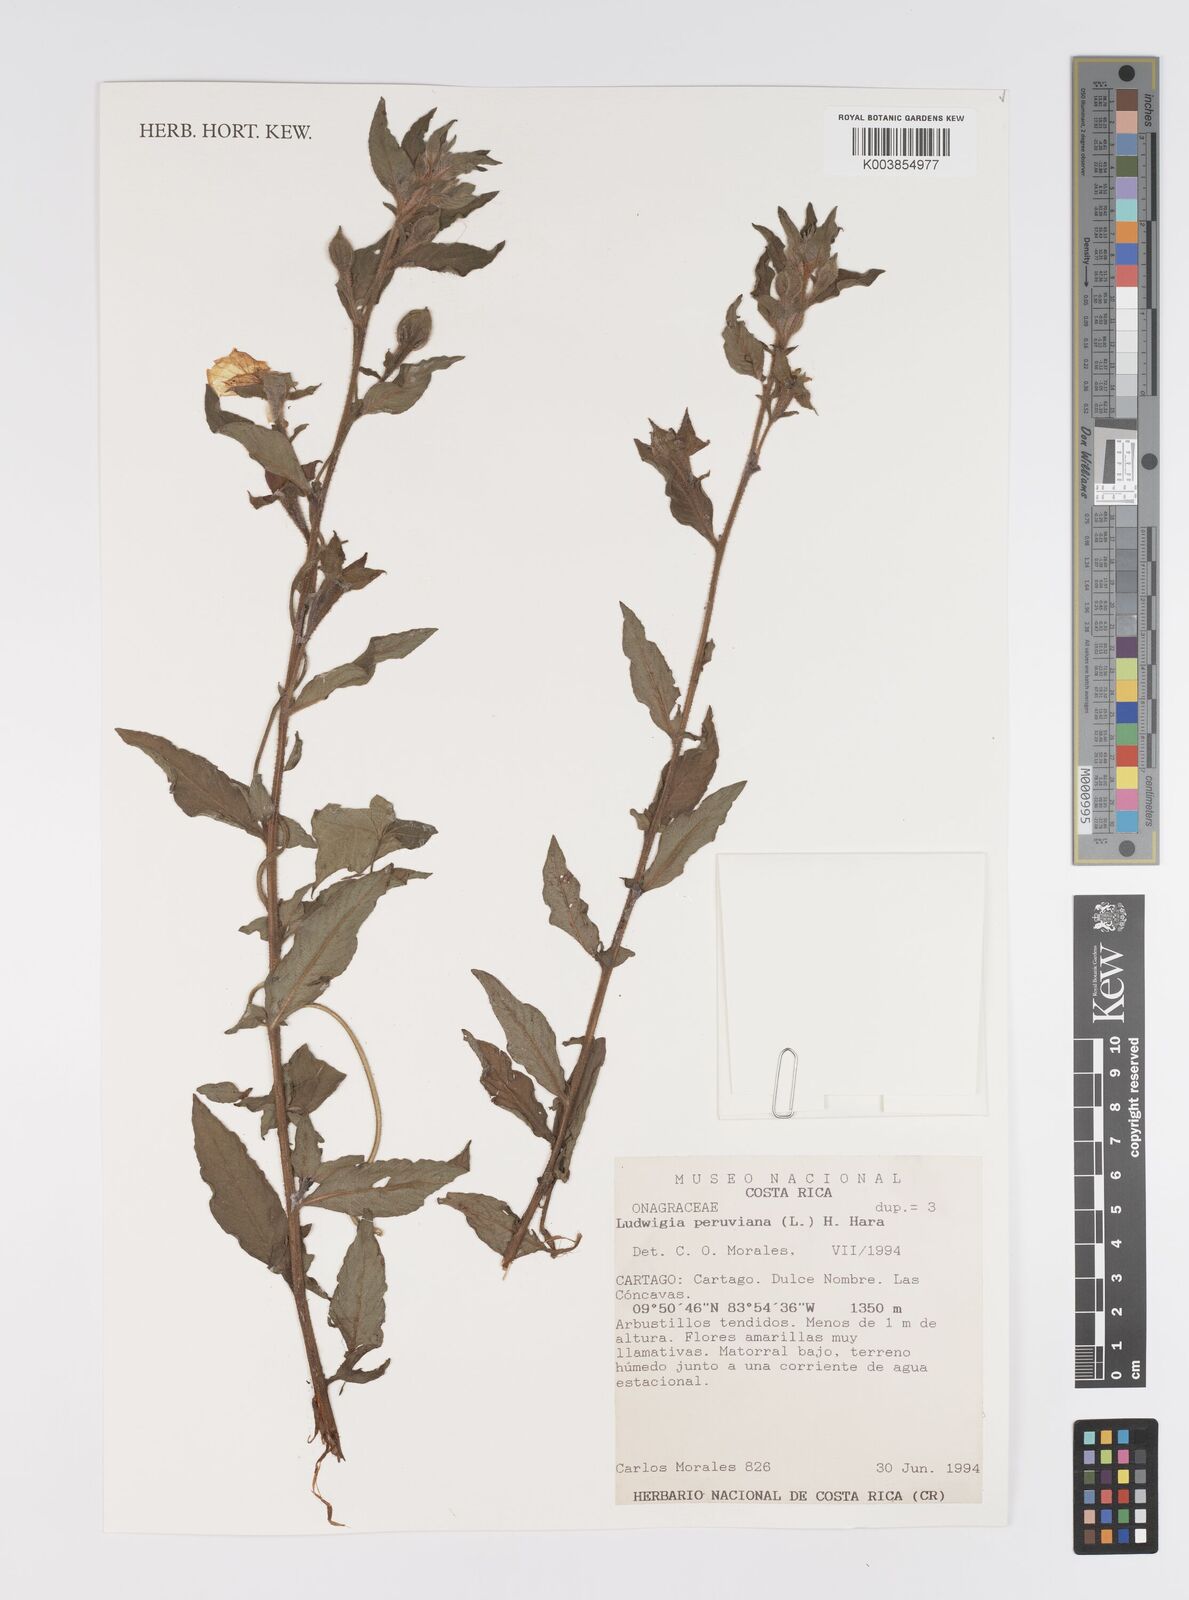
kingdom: Plantae
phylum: Tracheophyta
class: Magnoliopsida
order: Myrtales
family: Onagraceae
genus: Ludwigia
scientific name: Ludwigia peruviana
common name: Peruvian primrose-willow
